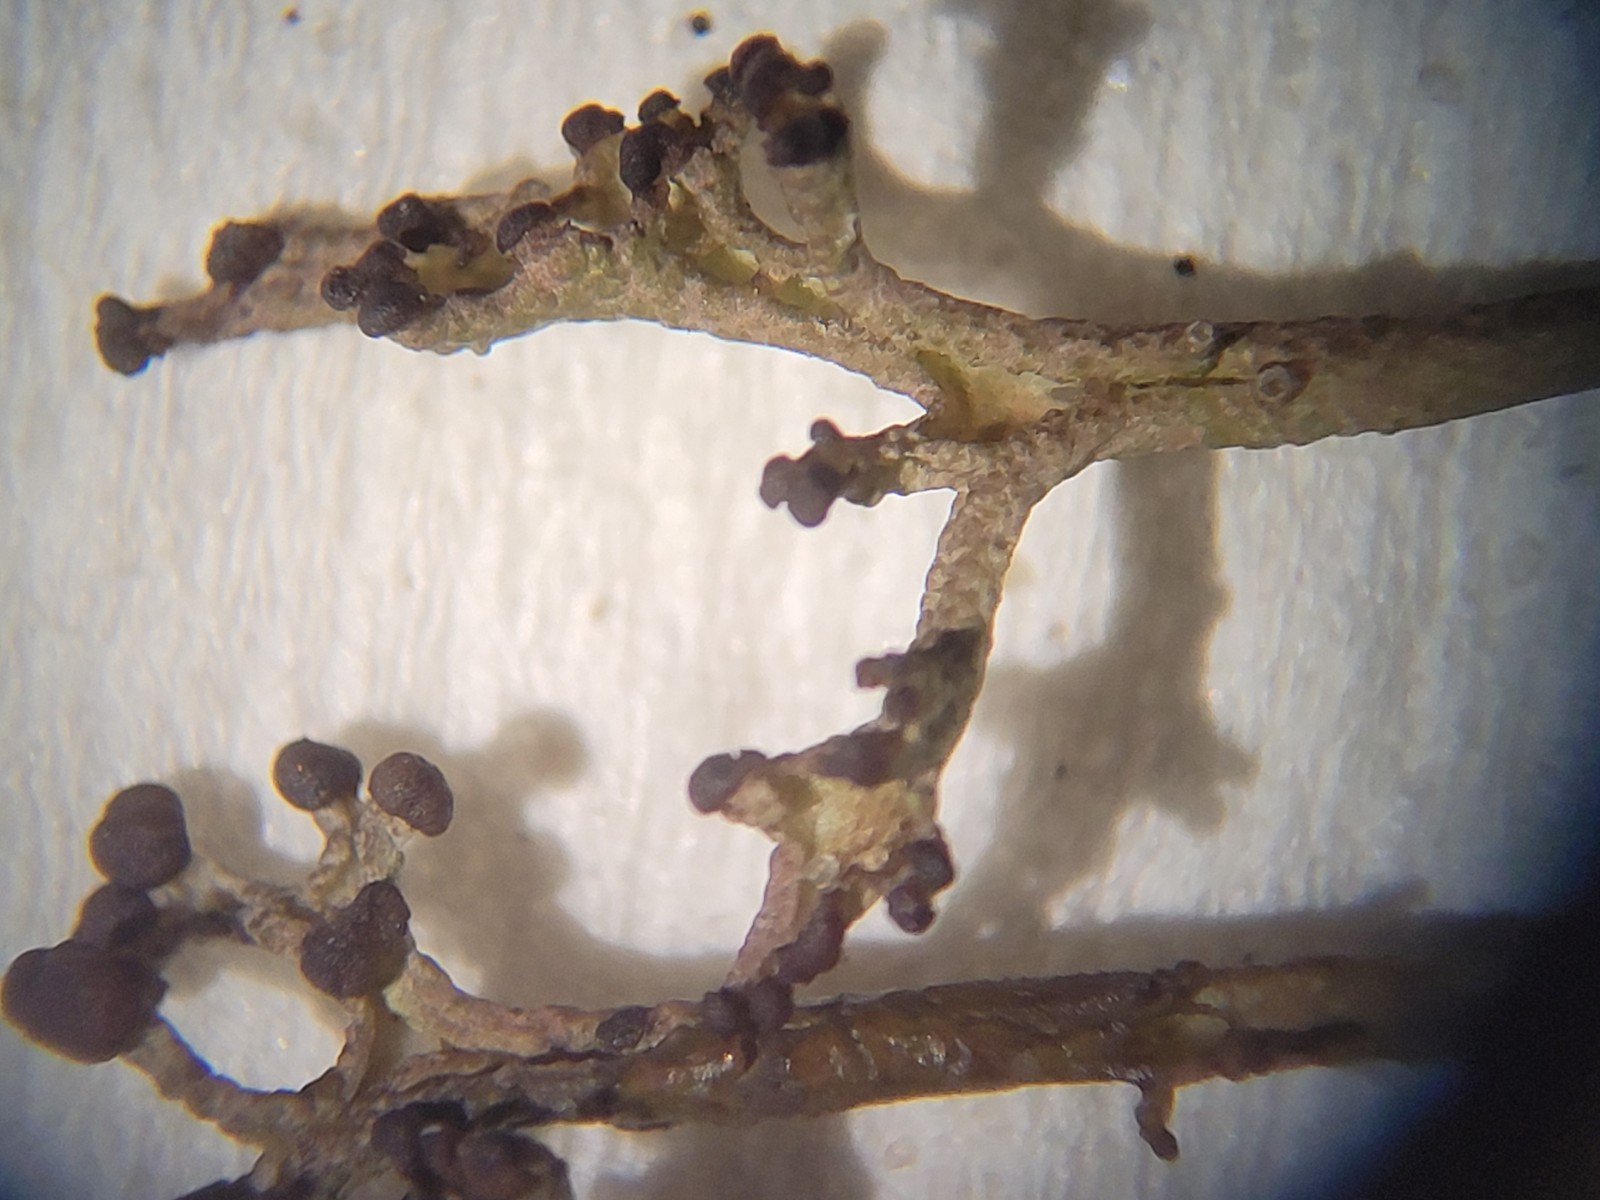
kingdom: Fungi
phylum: Ascomycota
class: Lecanoromycetes
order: Lecanorales
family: Cladoniaceae
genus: Cladonia
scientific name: Cladonia furcata
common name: kløftet bægerlav
